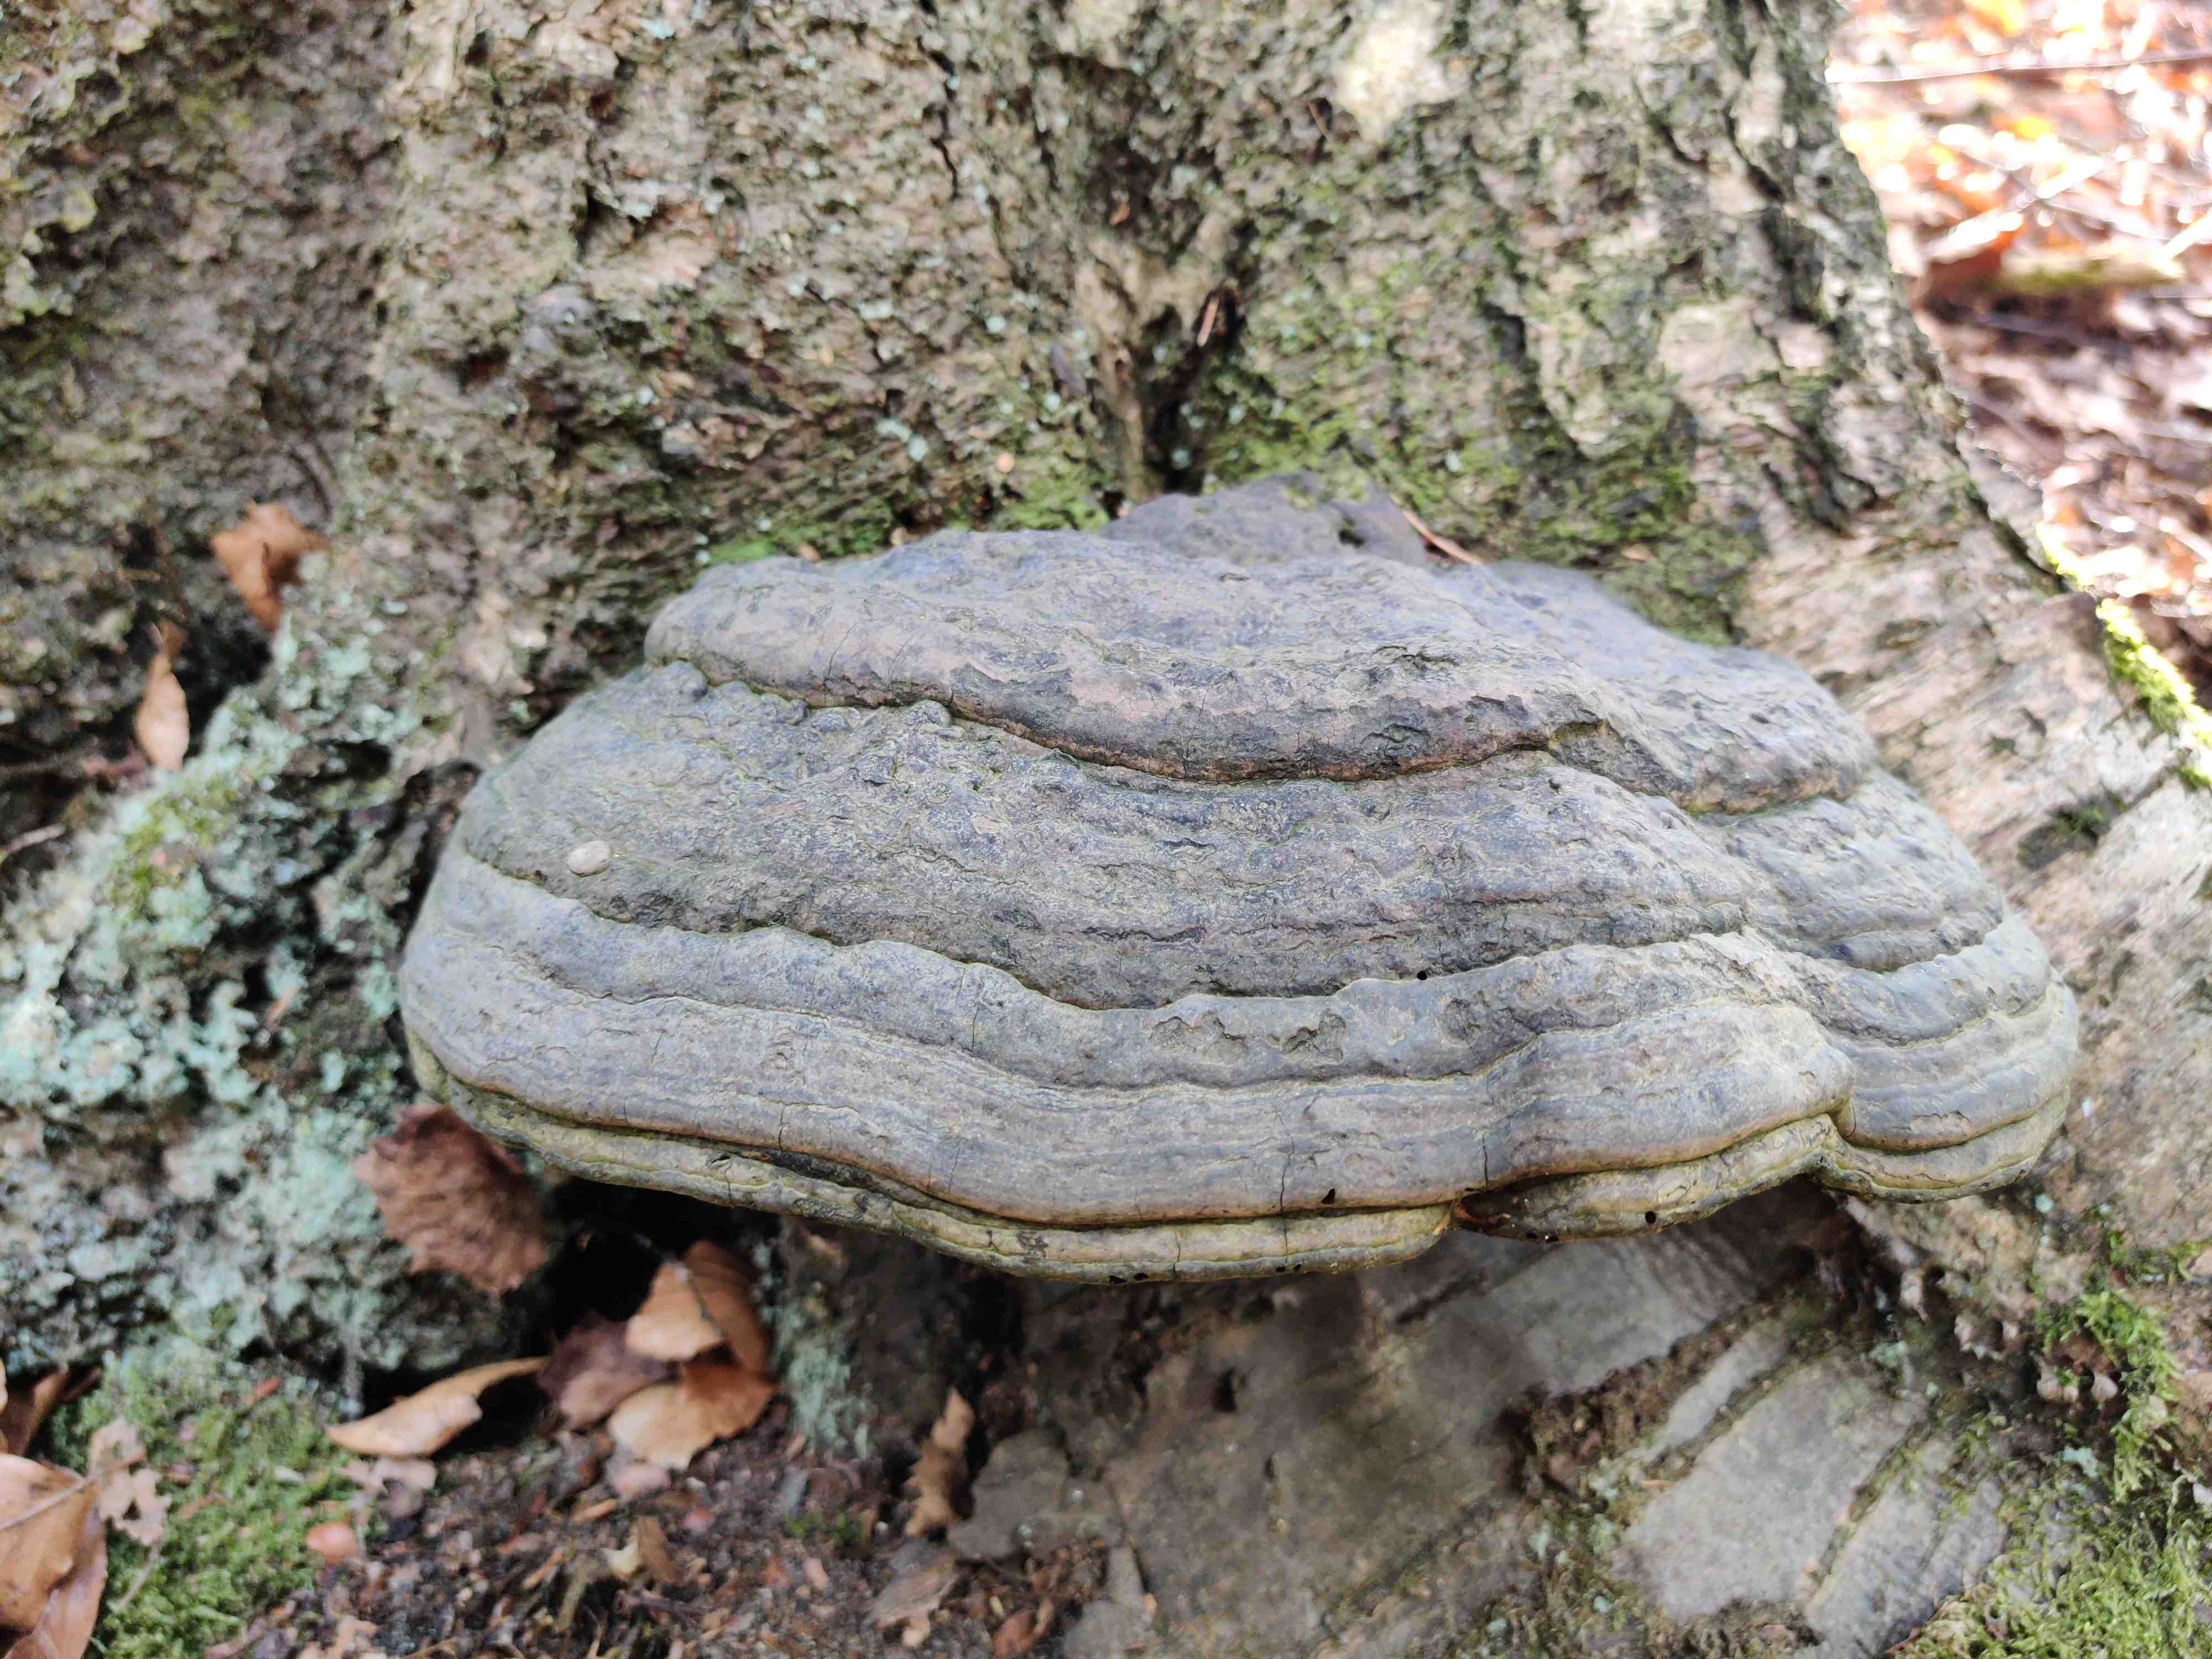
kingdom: Fungi
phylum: Basidiomycota
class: Agaricomycetes
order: Polyporales
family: Polyporaceae
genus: Fomes
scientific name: Fomes fomentarius
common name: tøndersvamp
